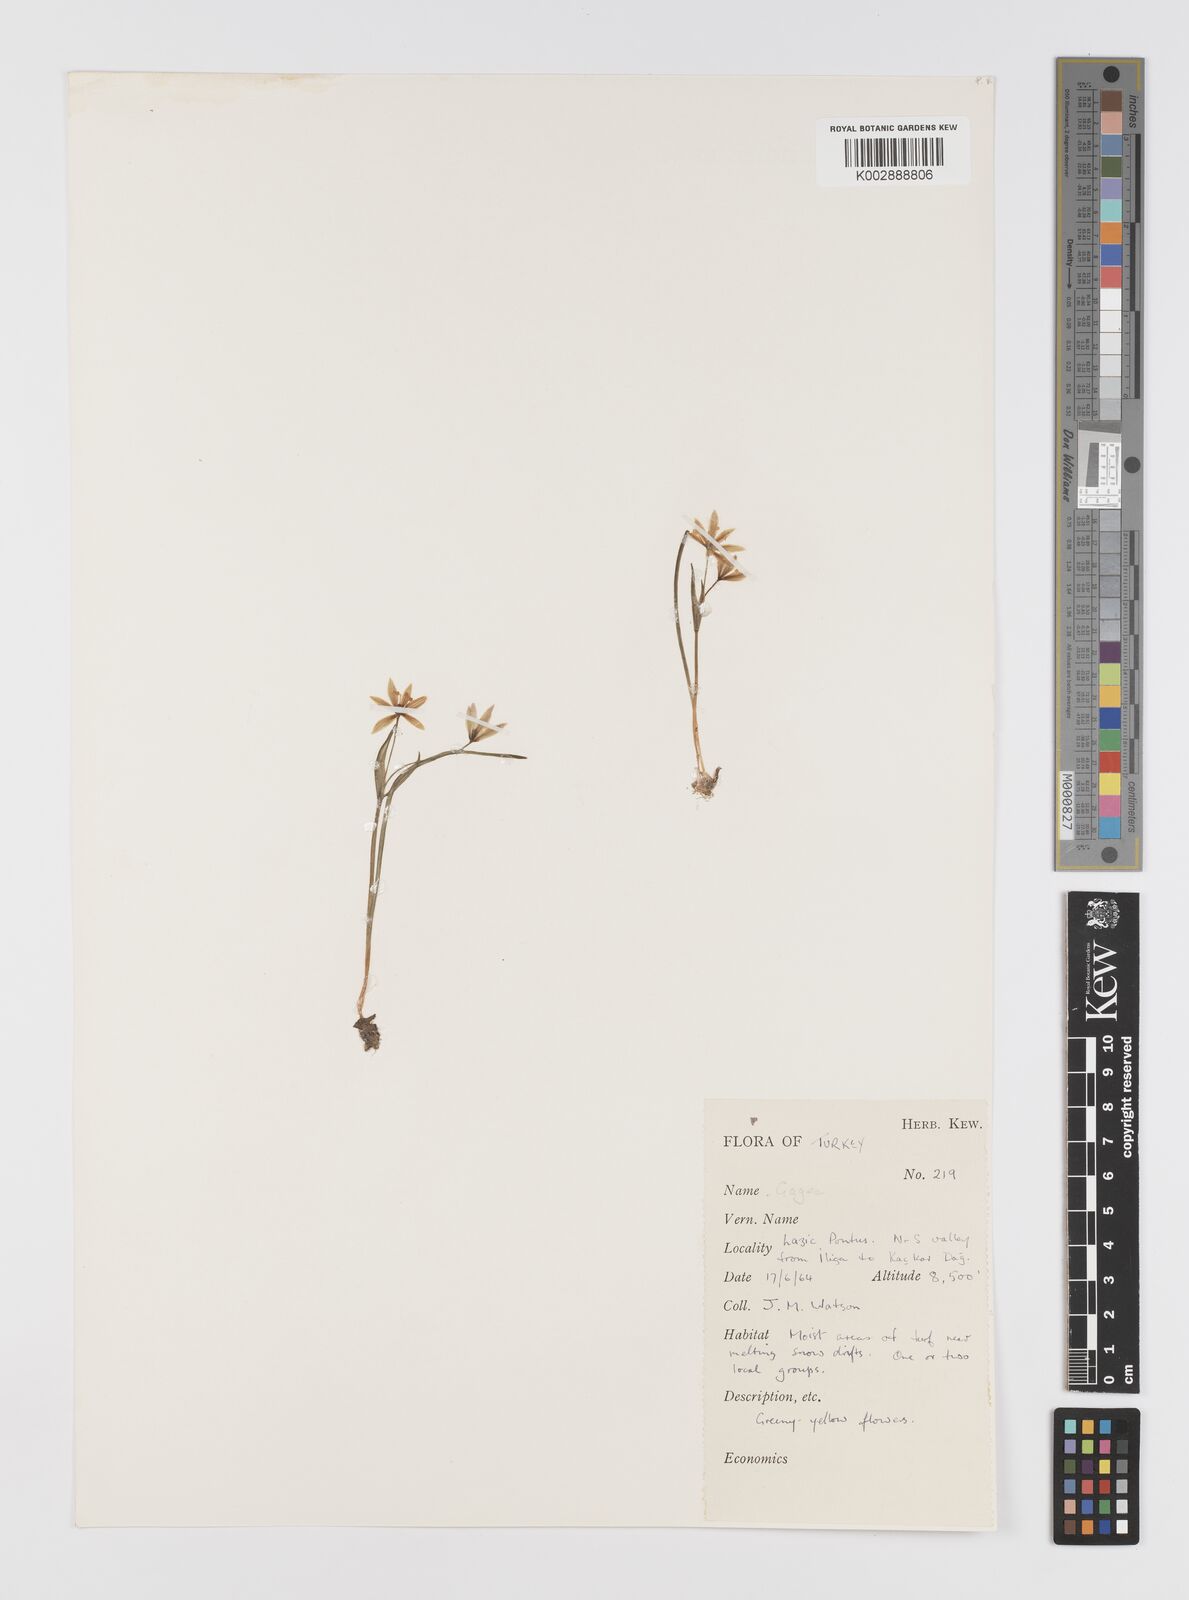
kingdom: Plantae
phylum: Tracheophyta
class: Liliopsida
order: Liliales
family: Liliaceae
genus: Gagea
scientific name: Gagea
